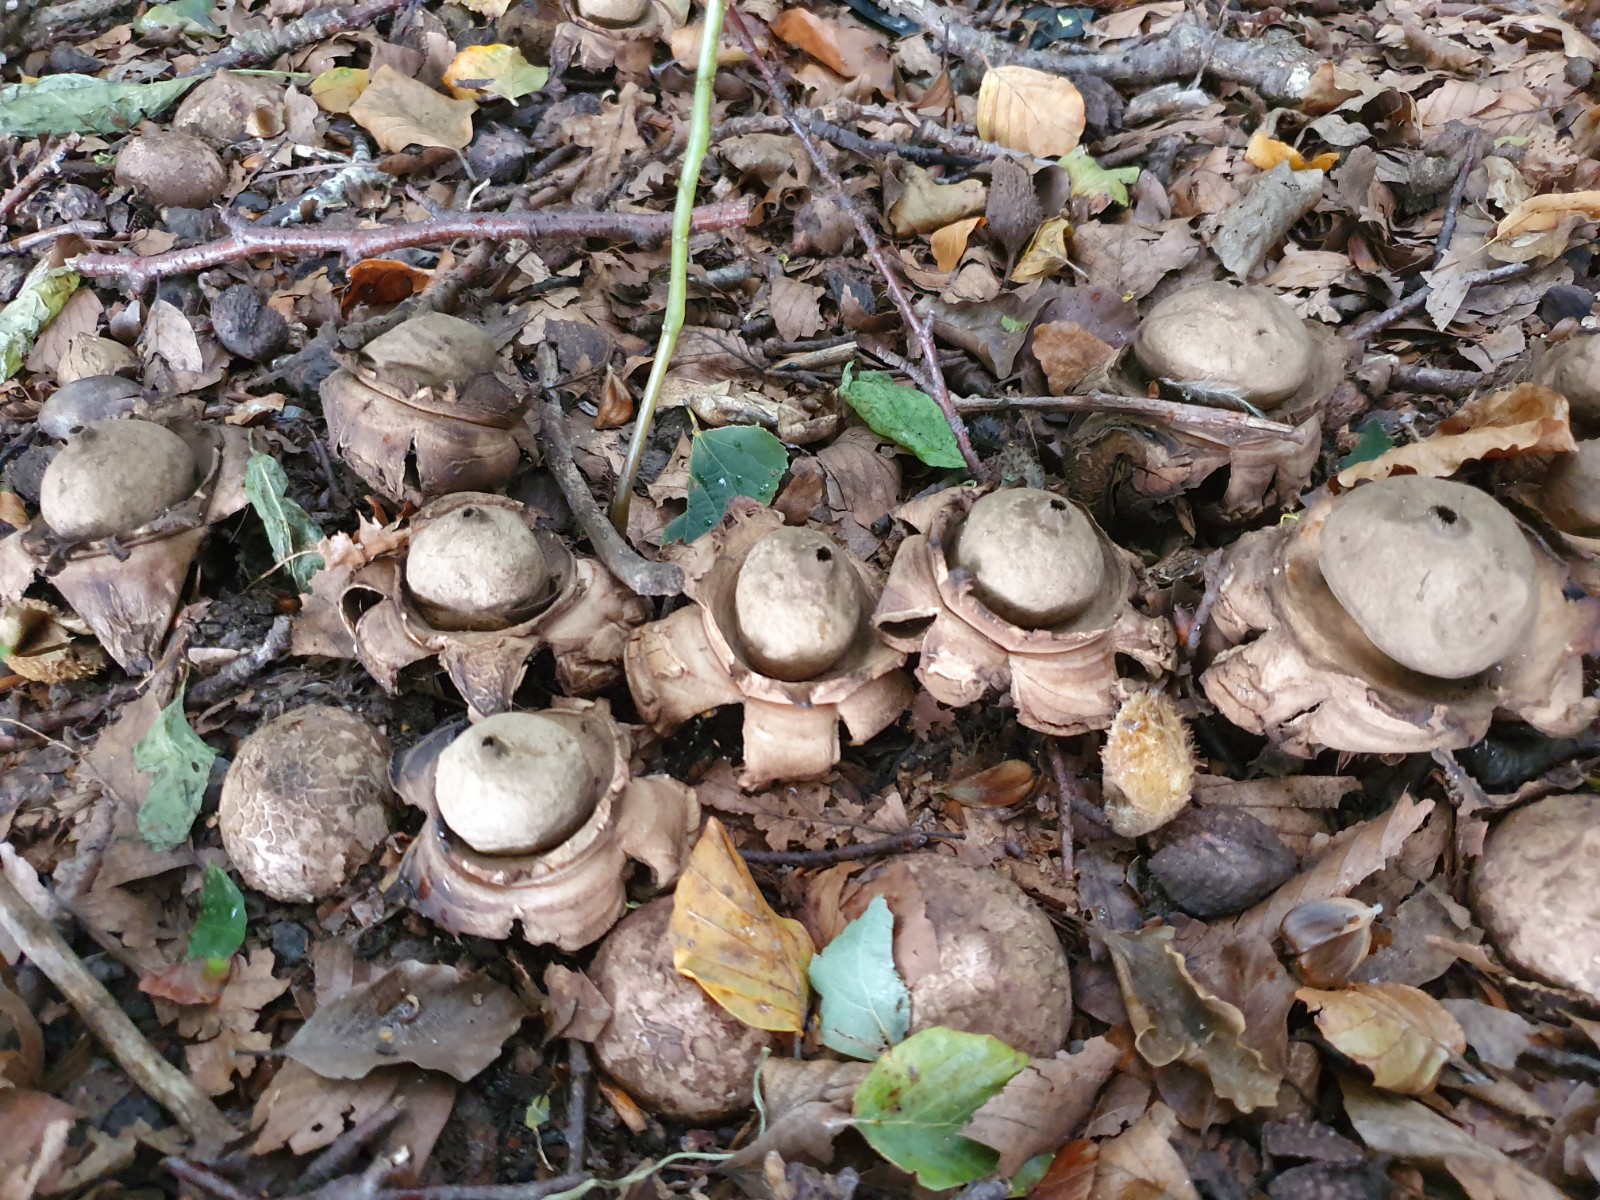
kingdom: Fungi
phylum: Basidiomycota
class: Agaricomycetes
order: Geastrales
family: Geastraceae
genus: Geastrum
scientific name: Geastrum michelianum
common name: kødet stjernebold
